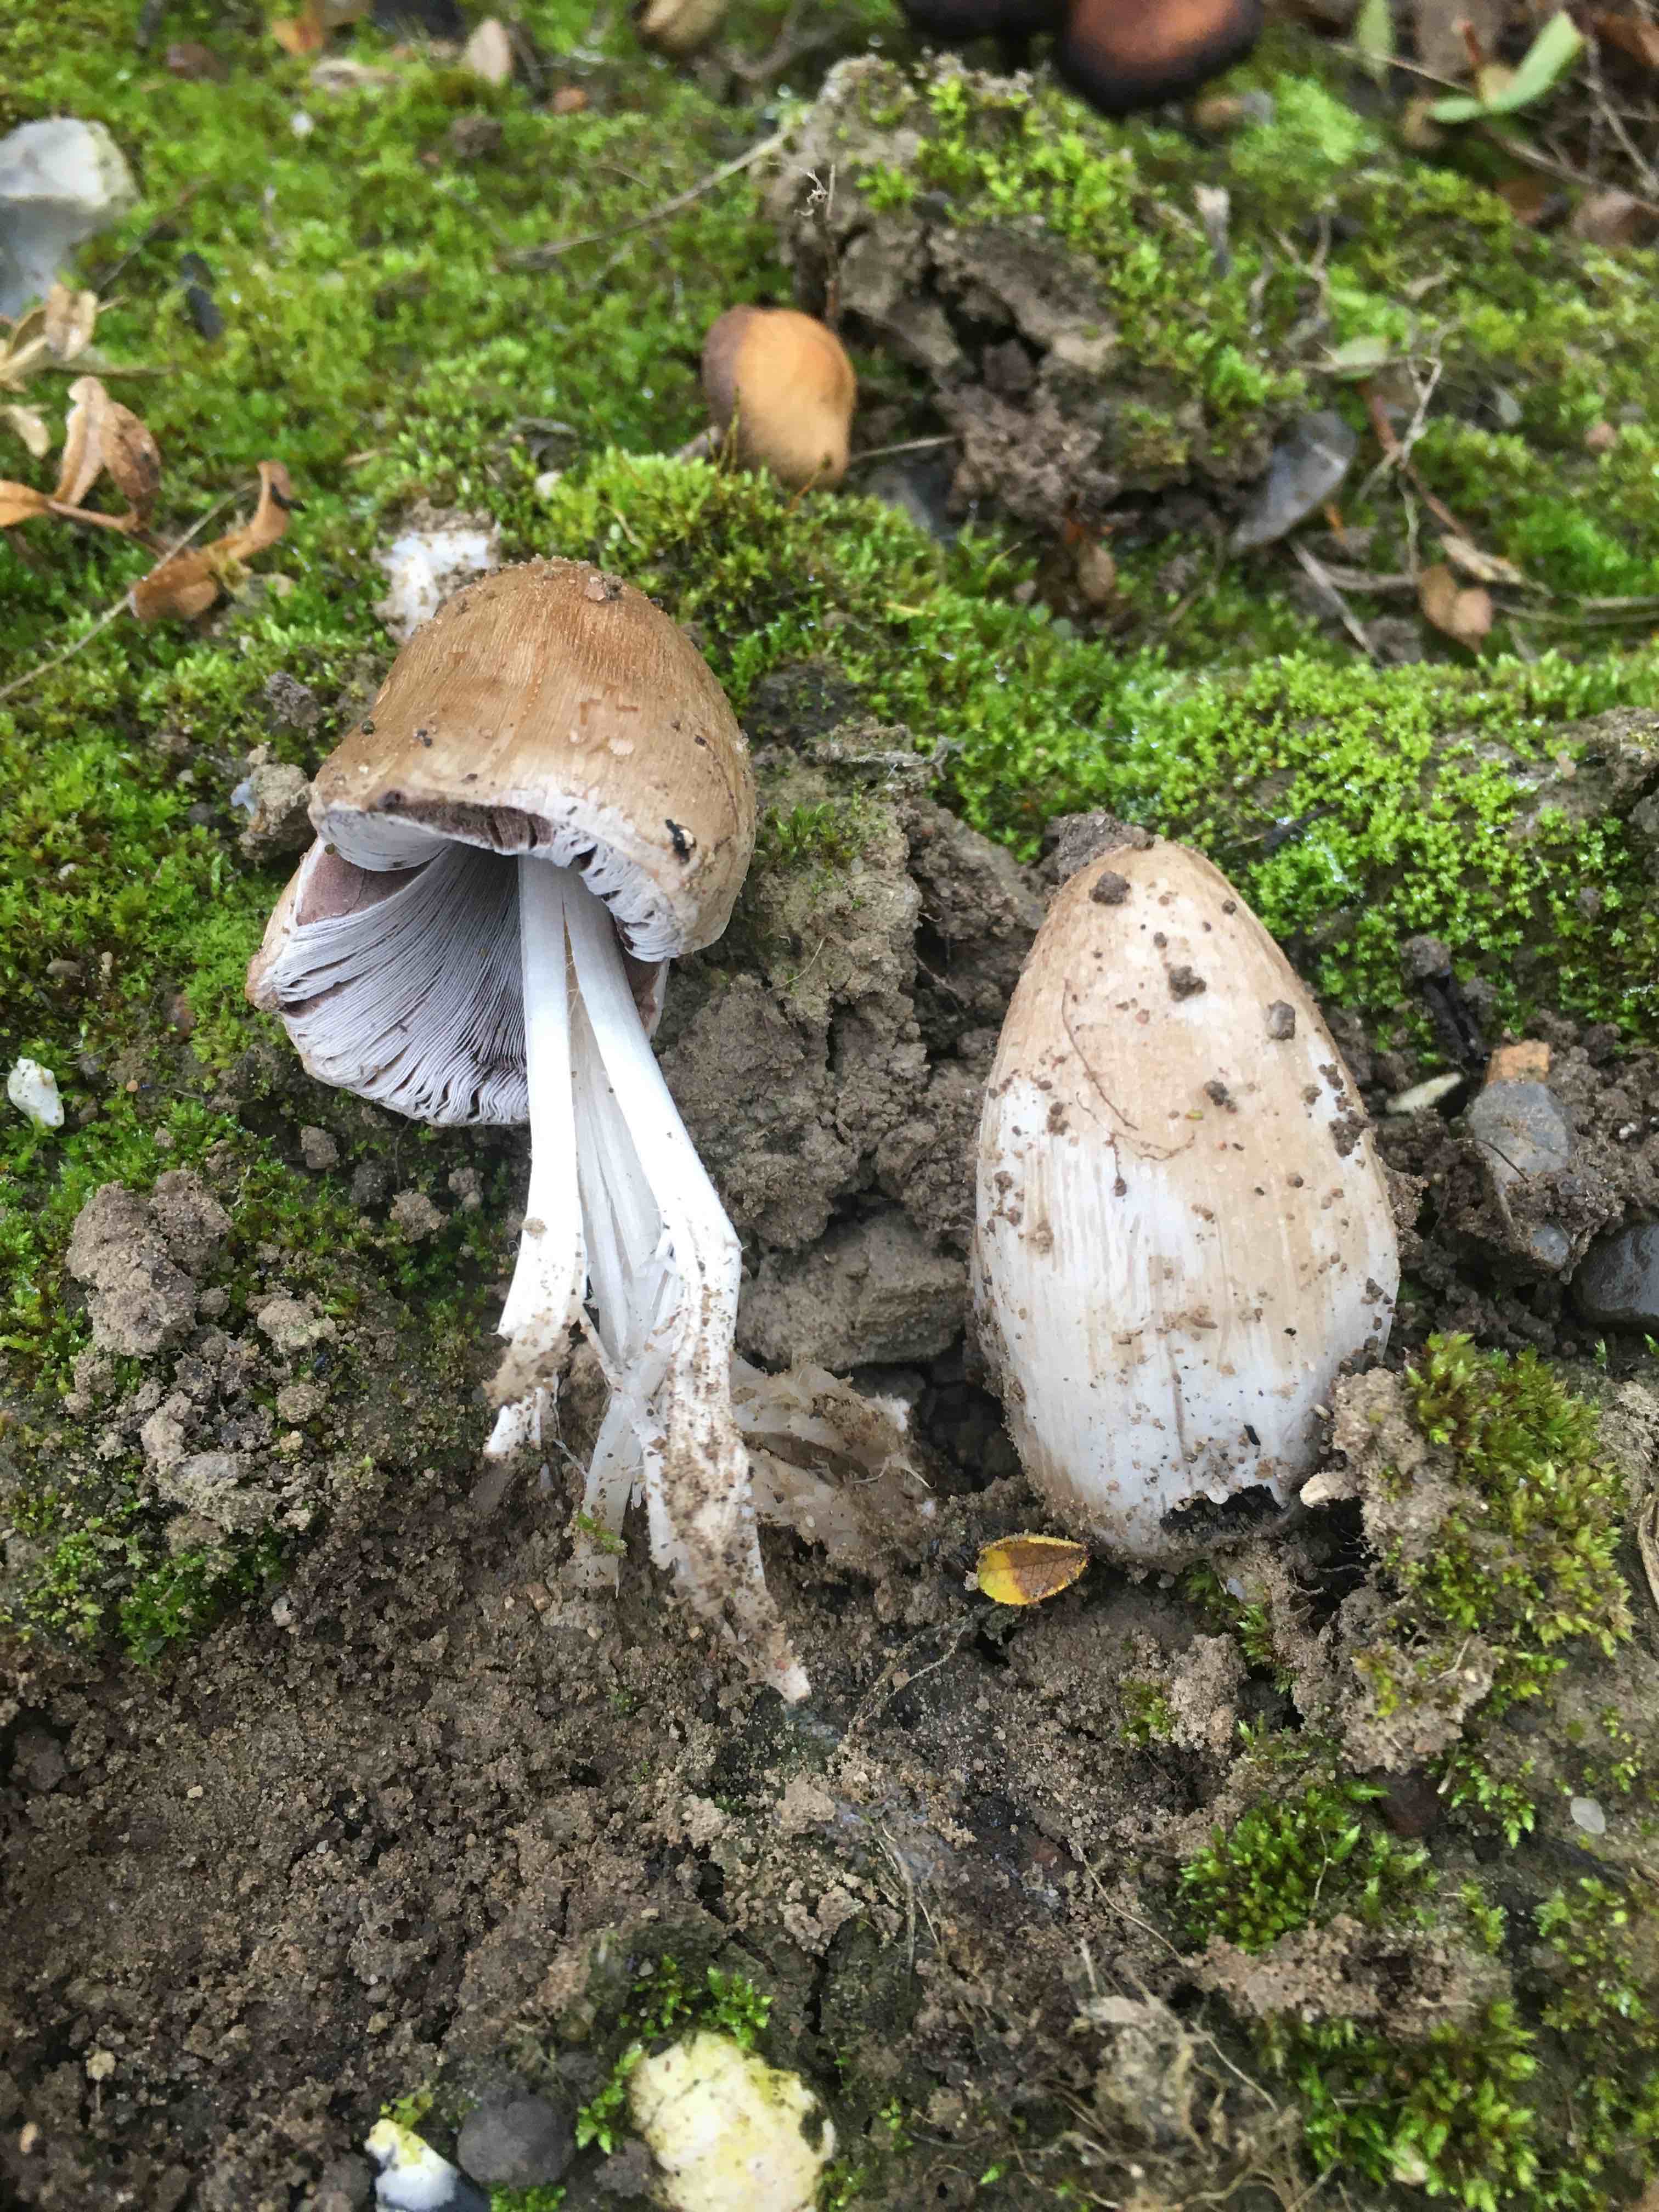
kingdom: Fungi
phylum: Basidiomycota
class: Agaricomycetes
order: Agaricales
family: Psathyrellaceae
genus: Coprinopsis
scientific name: Coprinopsis
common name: blækhat
